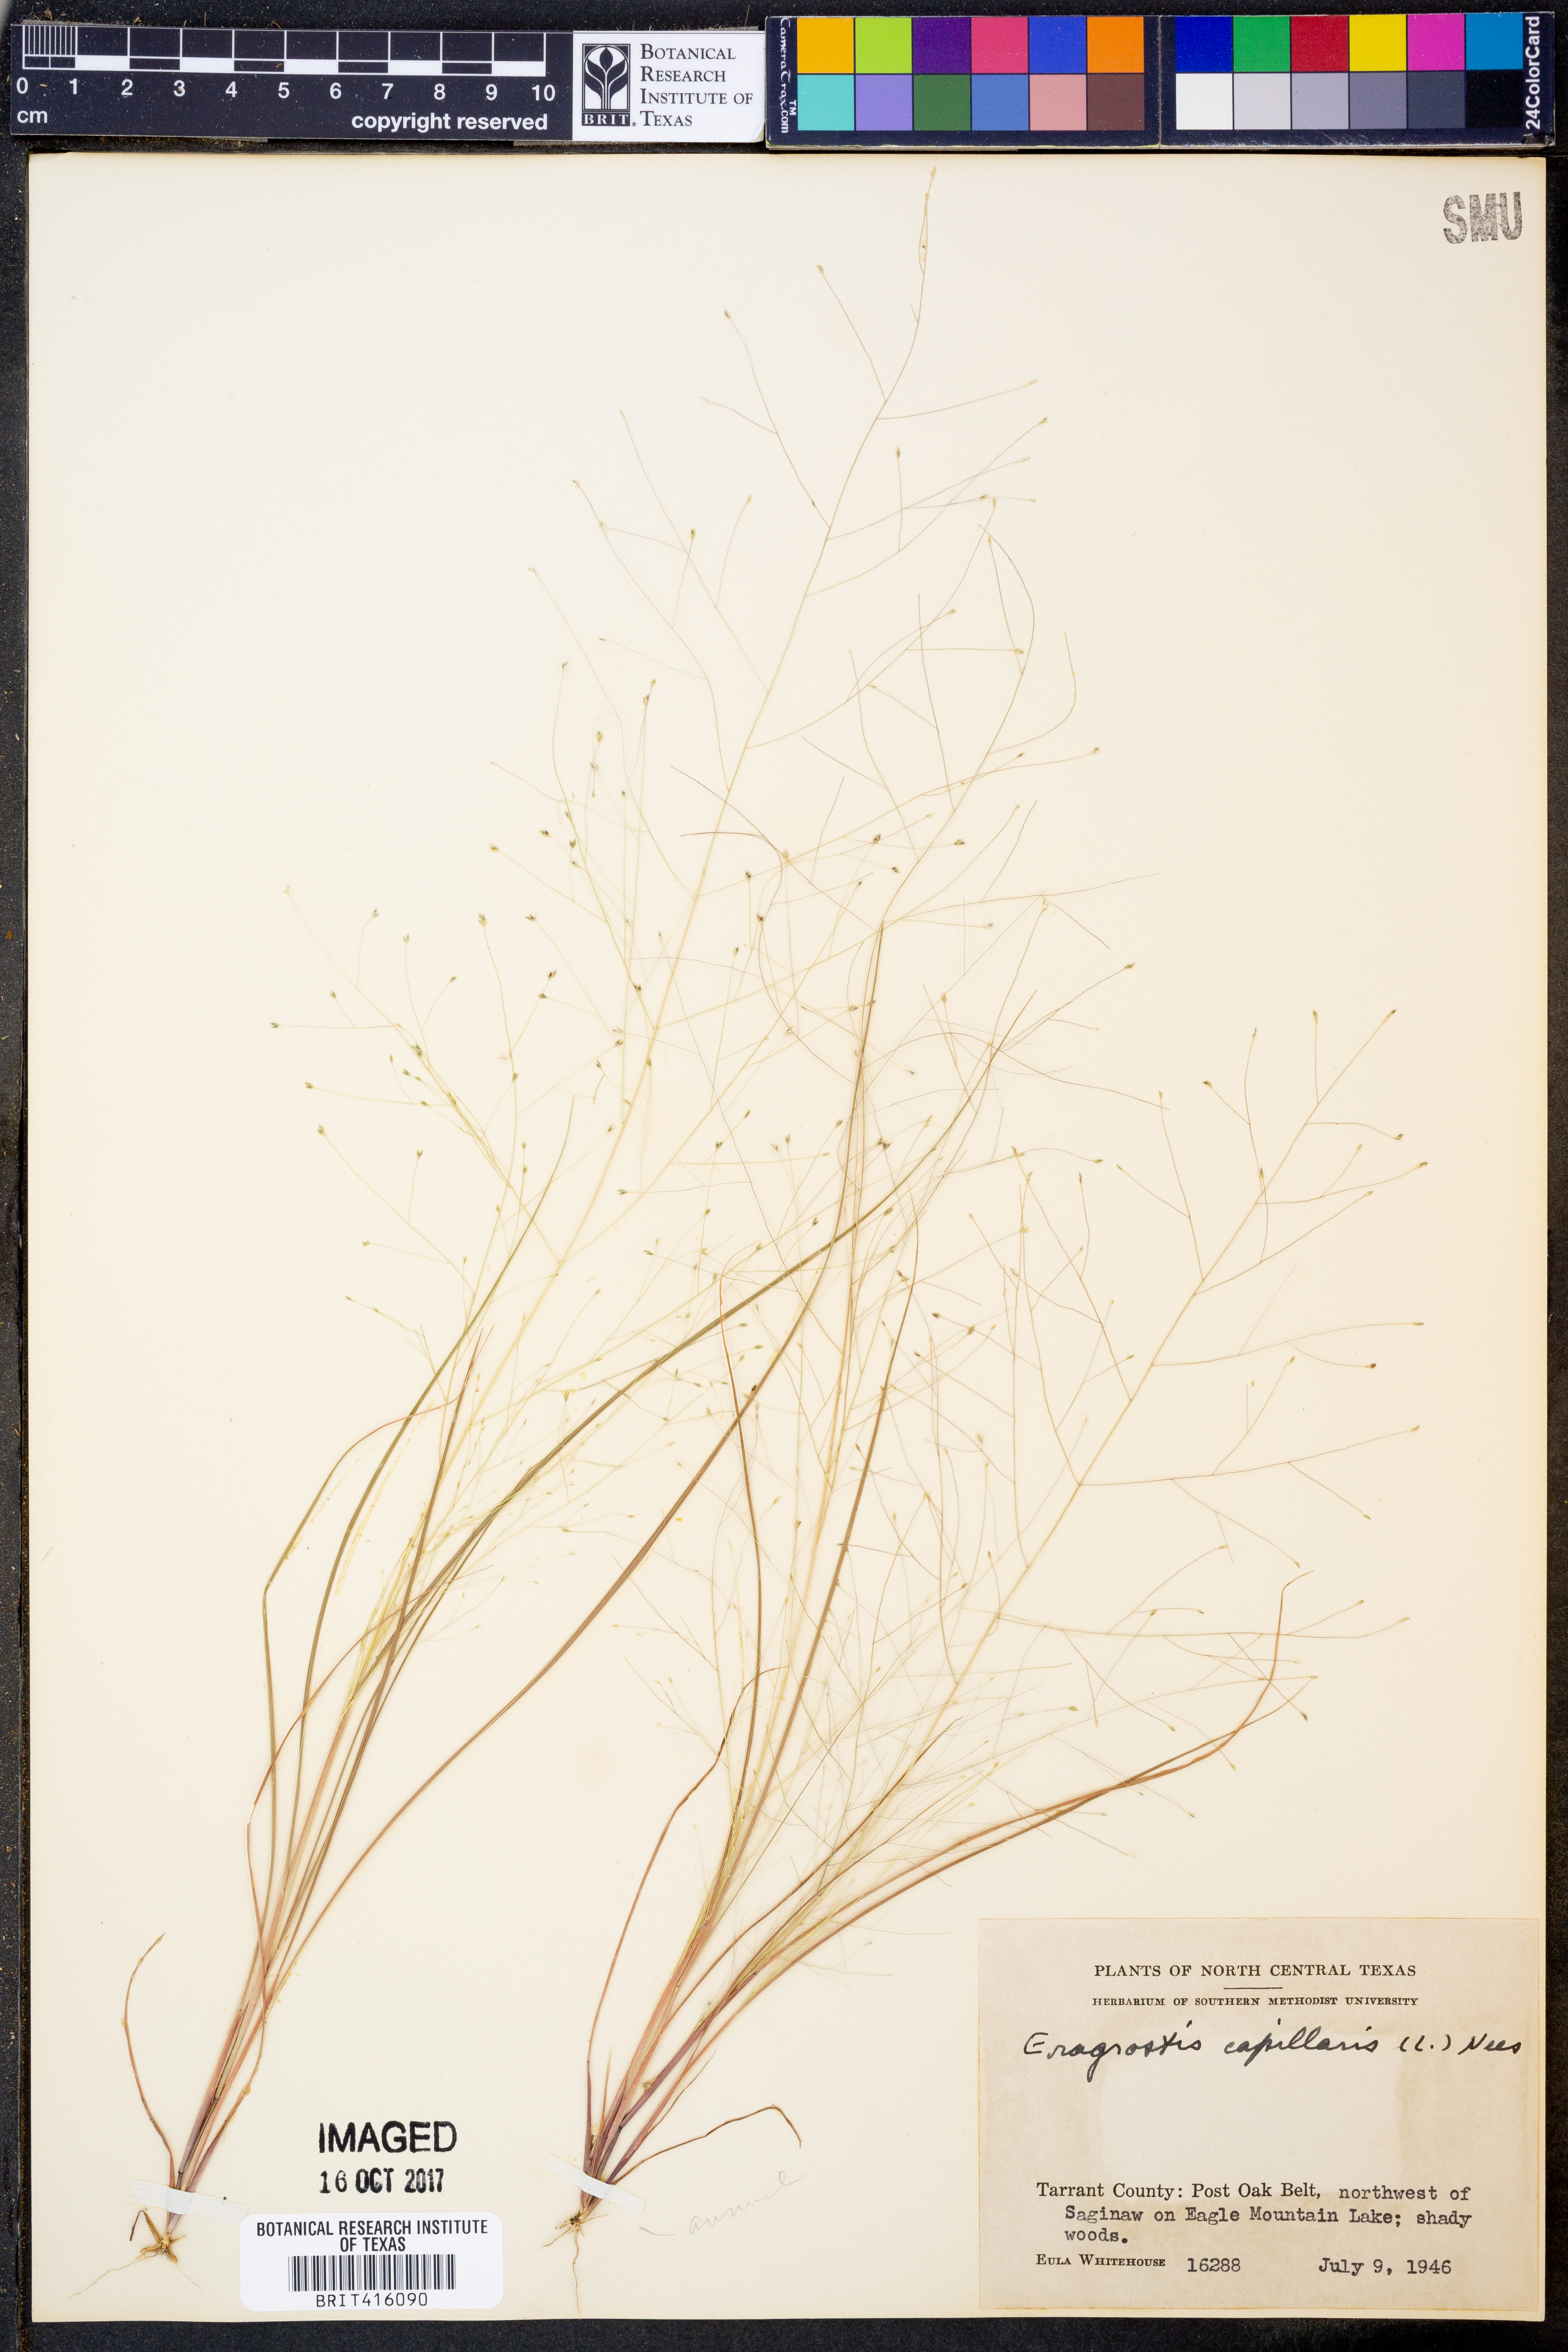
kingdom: Plantae
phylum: Tracheophyta
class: Liliopsida
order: Poales
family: Poaceae
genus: Eragrostis
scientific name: Eragrostis capillaris
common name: Hair-like lovegrass
